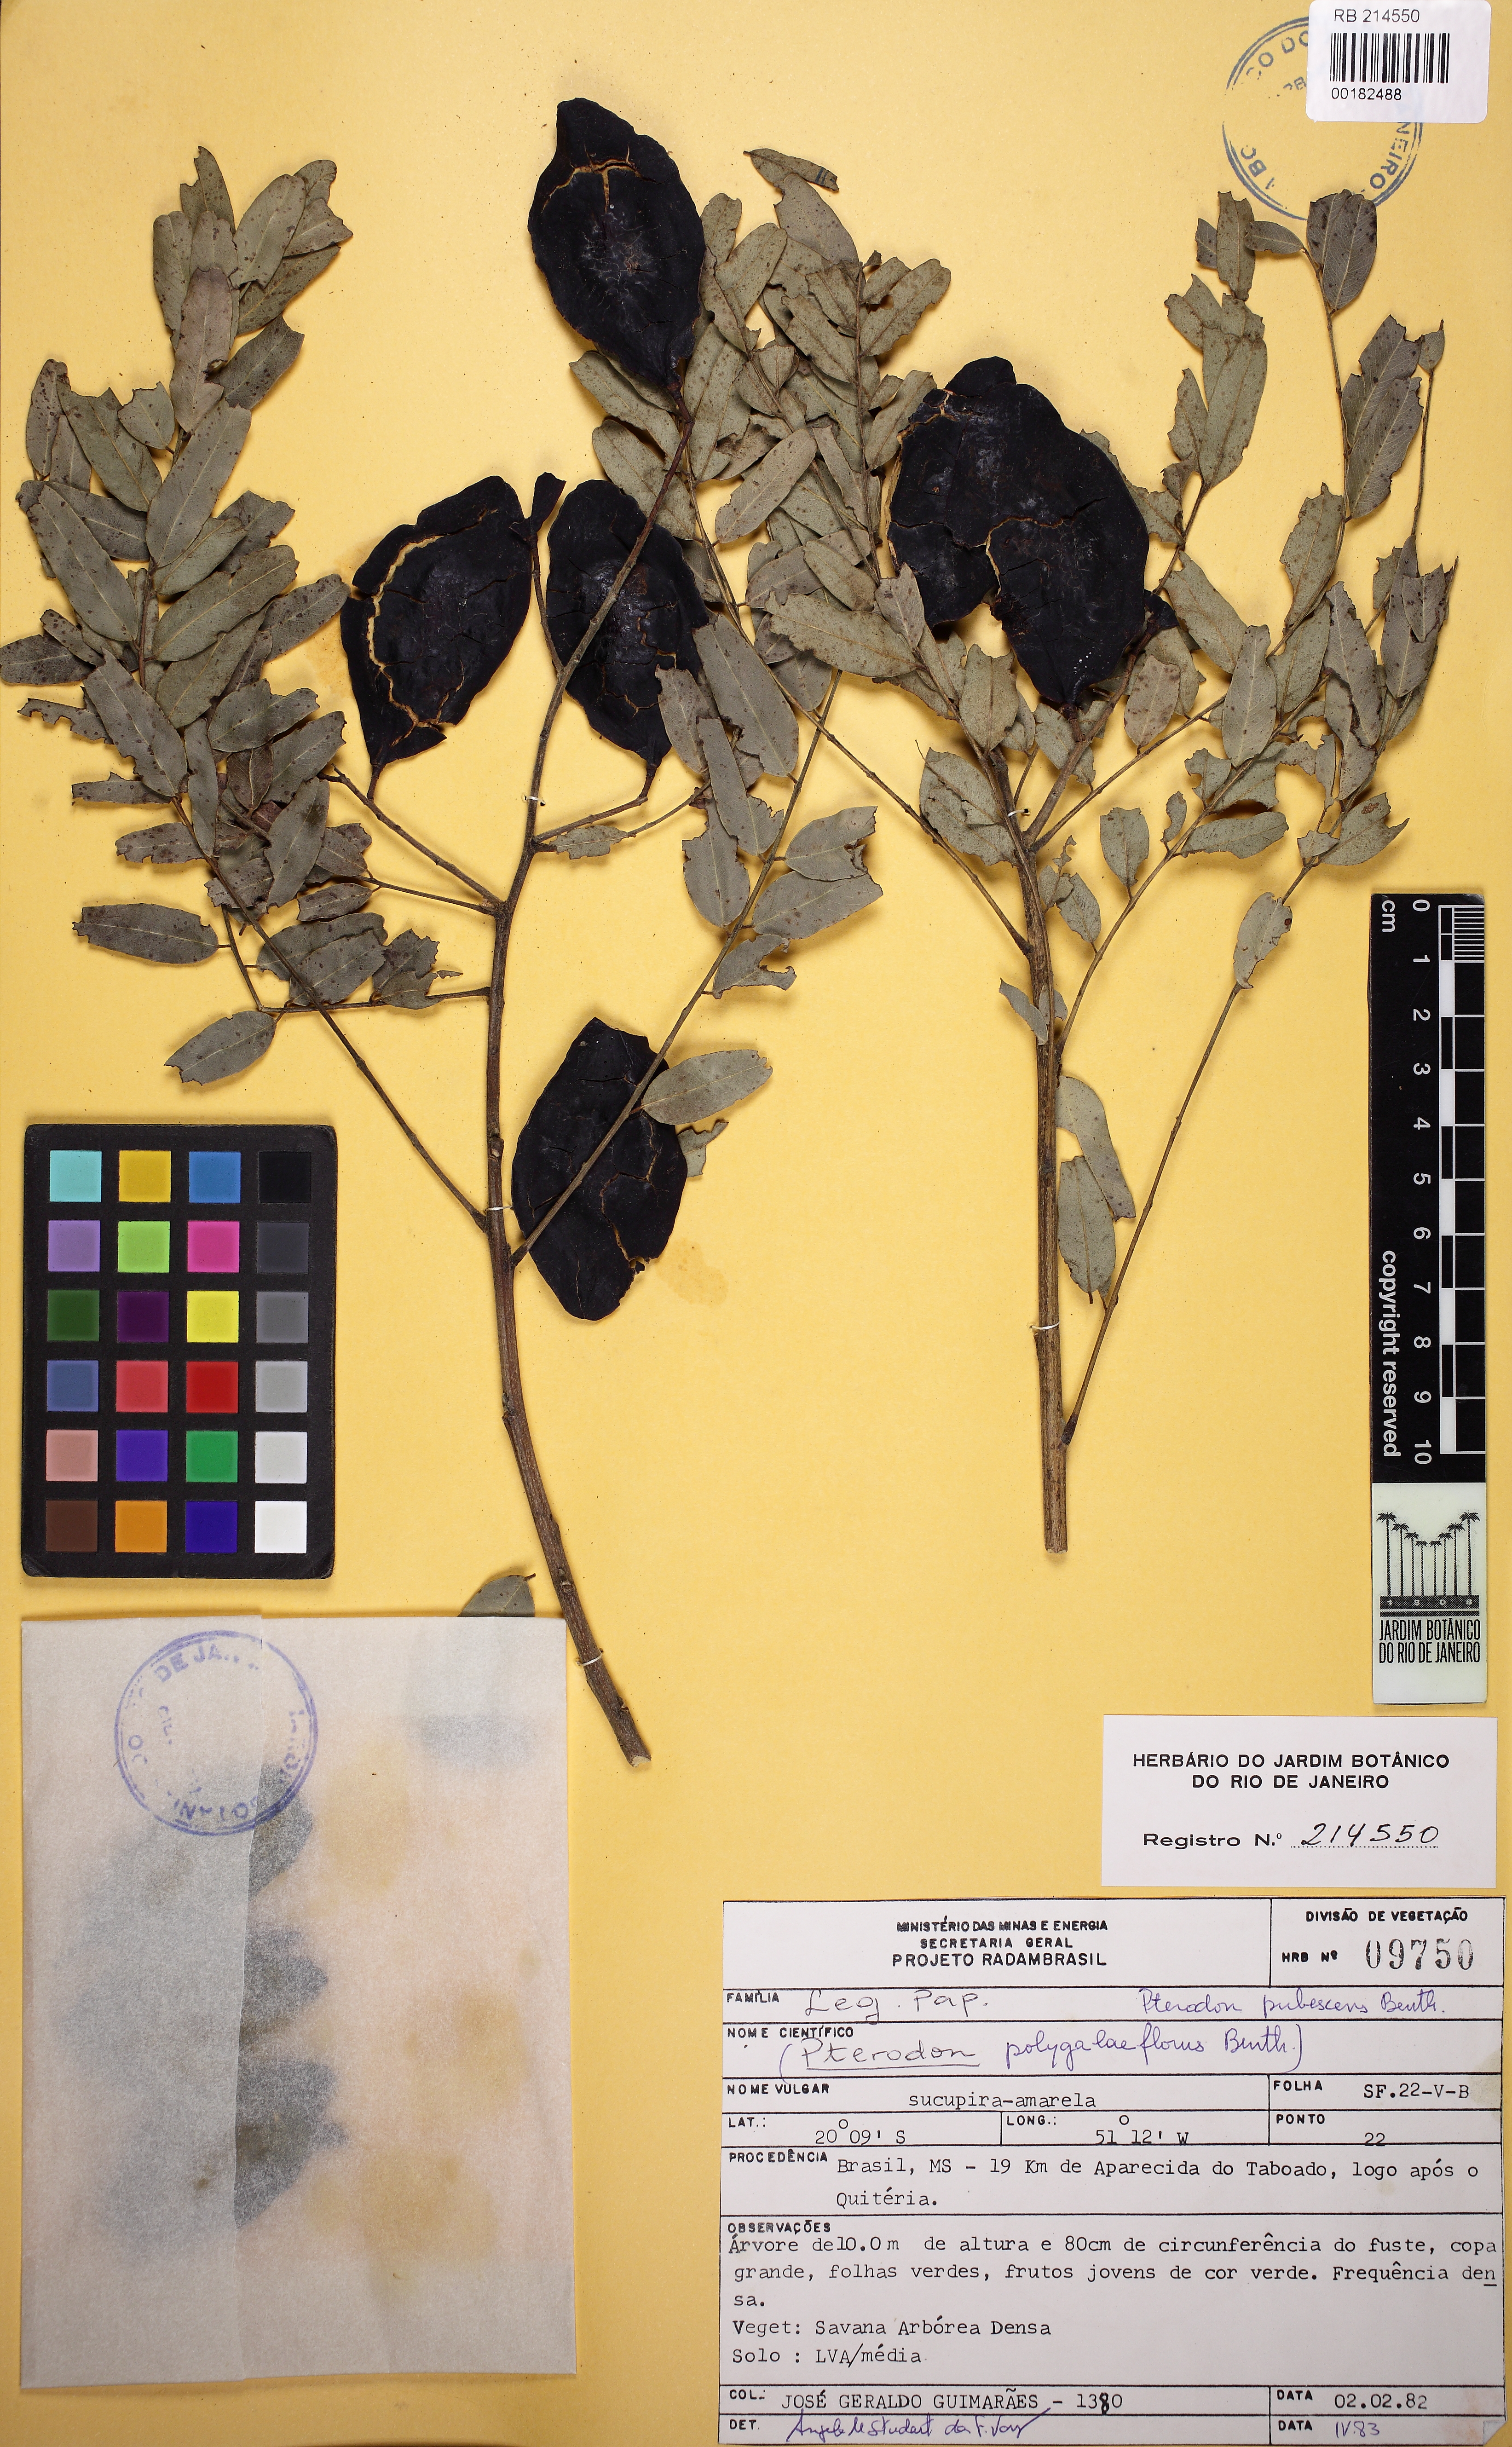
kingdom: Plantae
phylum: Tracheophyta
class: Magnoliopsida
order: Fabales
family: Fabaceae
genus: Pterodon
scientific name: Pterodon emarginatus
